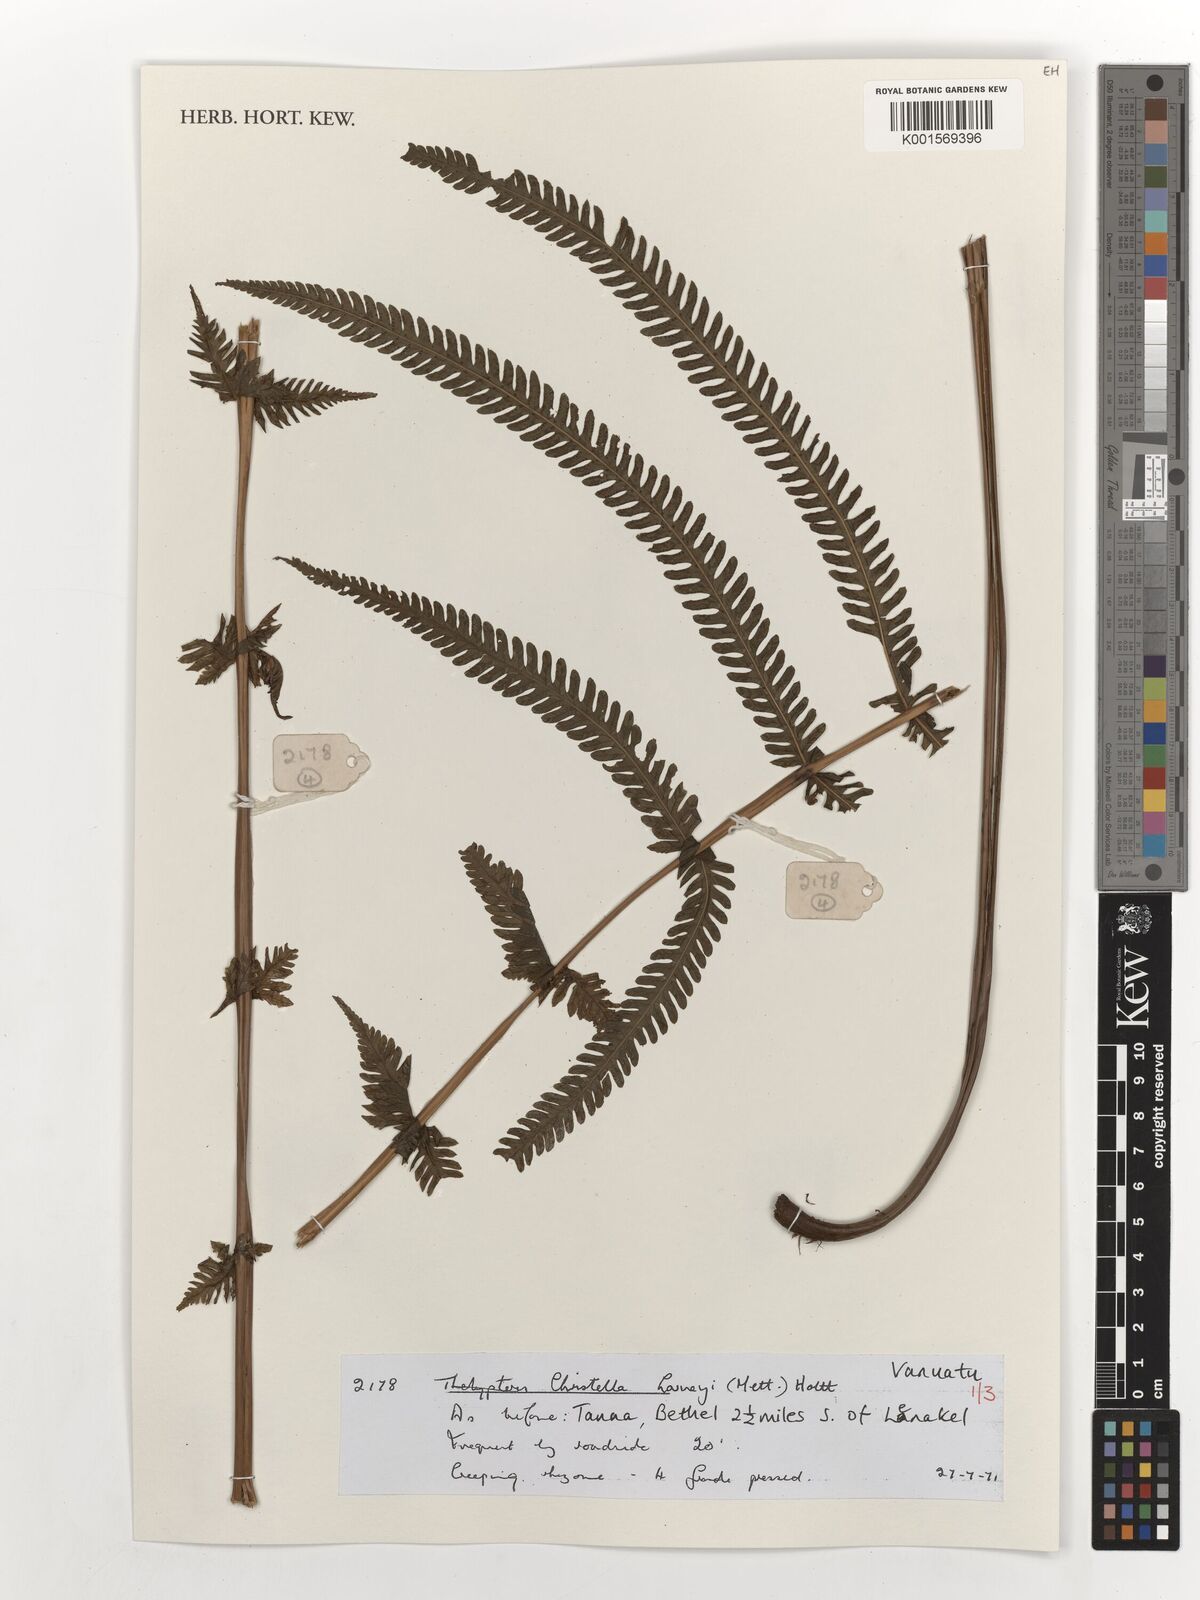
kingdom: Plantae
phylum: Tracheophyta
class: Polypodiopsida
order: Polypodiales
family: Thelypteridaceae
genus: Christella
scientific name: Christella harveyi
